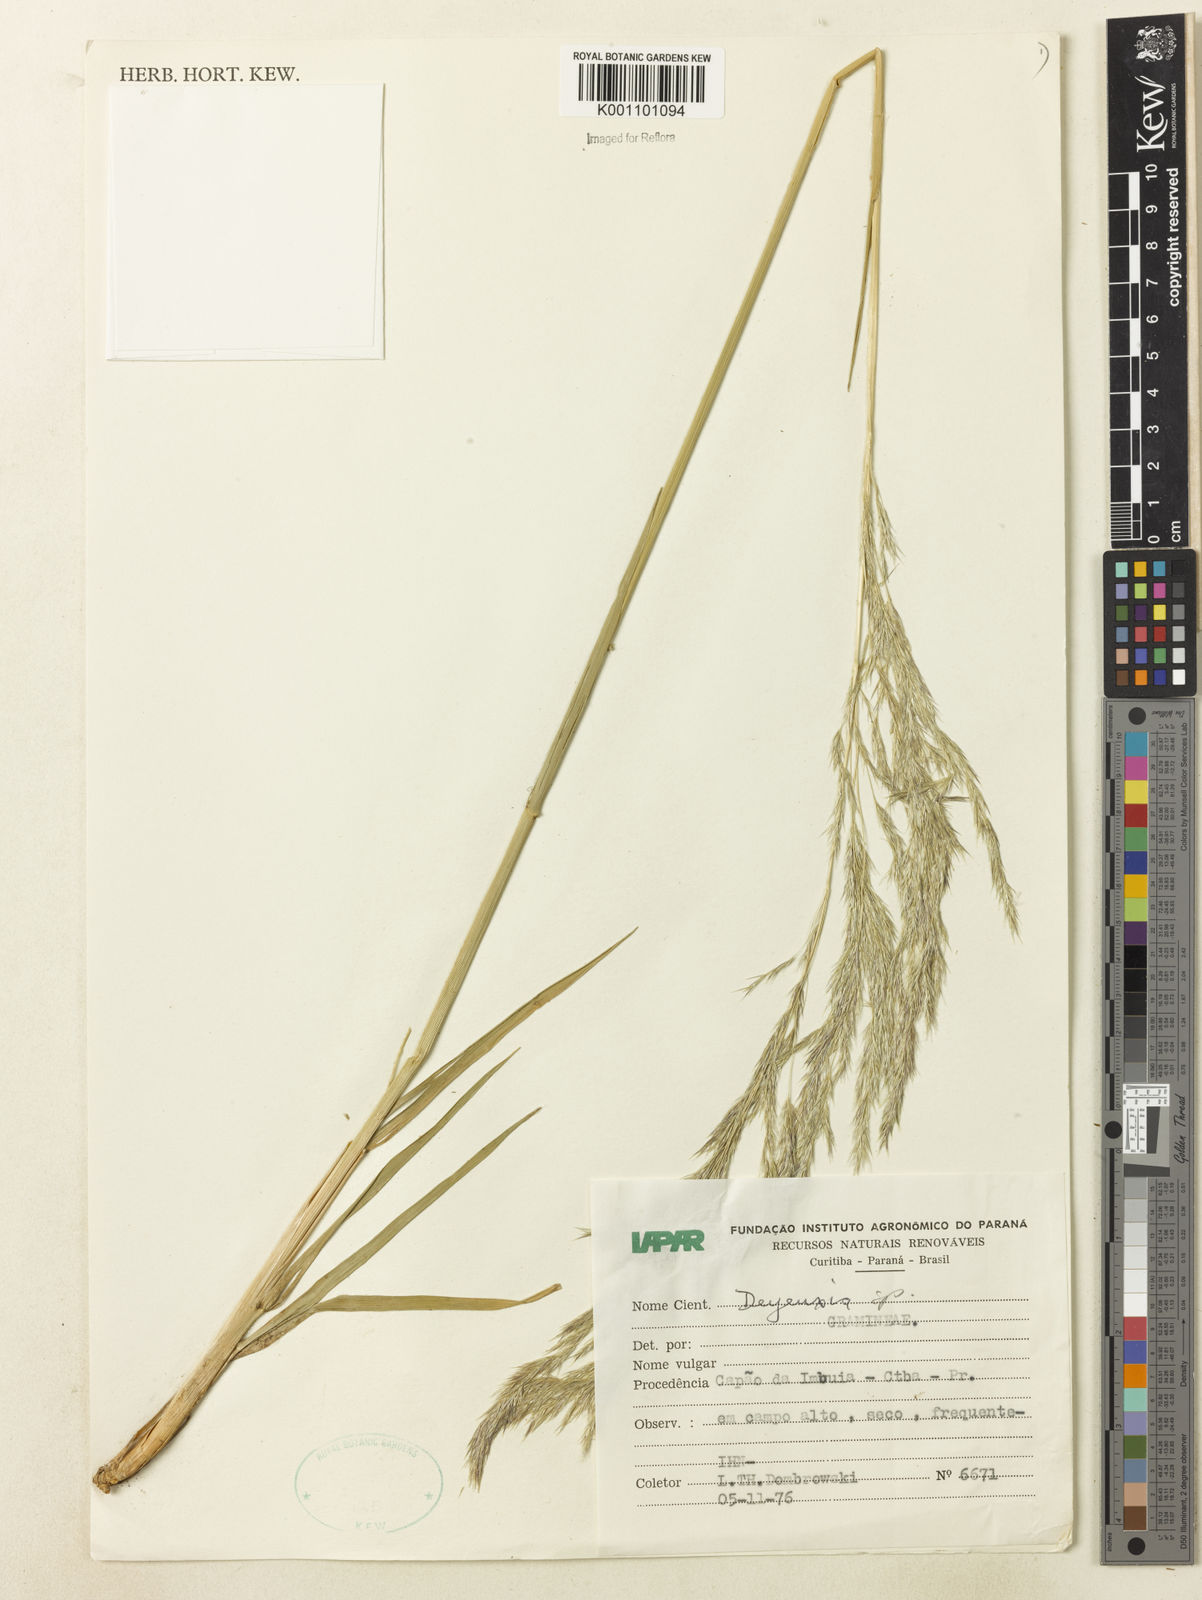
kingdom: Plantae
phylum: Tracheophyta
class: Liliopsida
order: Poales
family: Poaceae
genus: Calamagrostis
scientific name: Calamagrostis
